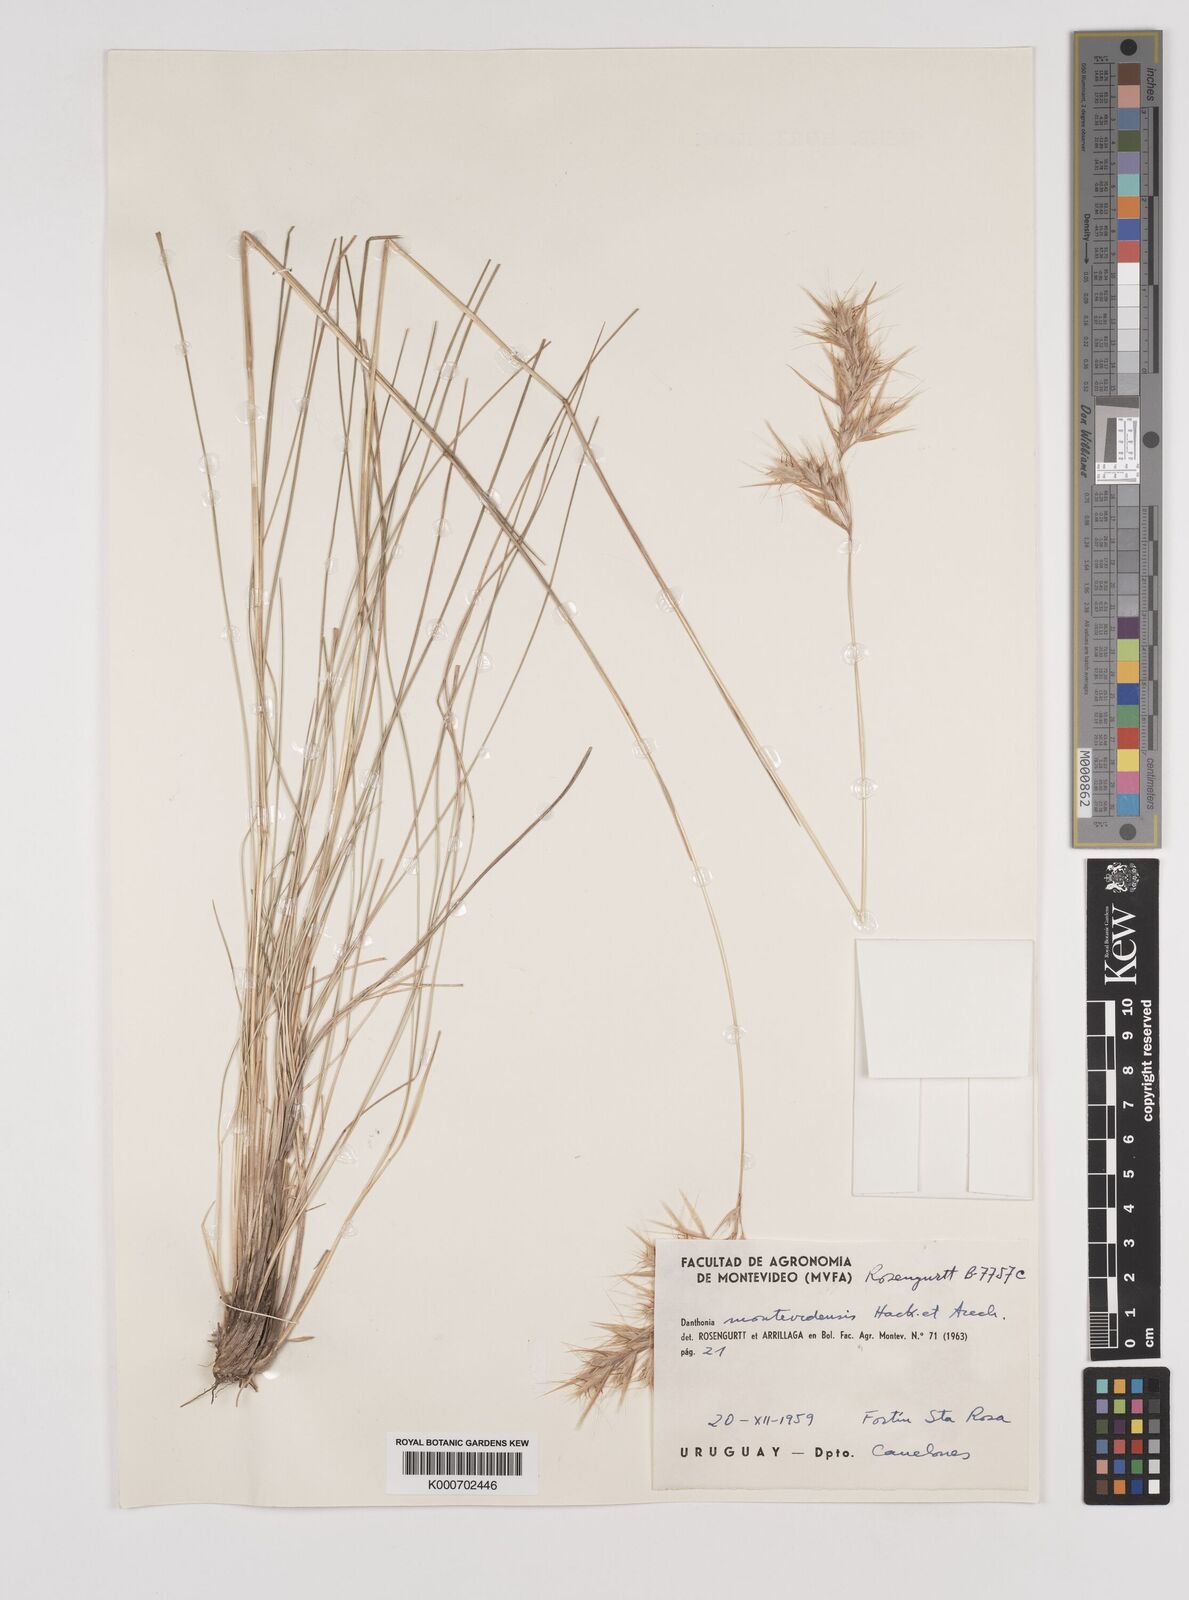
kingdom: Plantae
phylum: Tracheophyta
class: Liliopsida
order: Poales
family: Poaceae
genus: Danthonia
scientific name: Danthonia montevidensis
